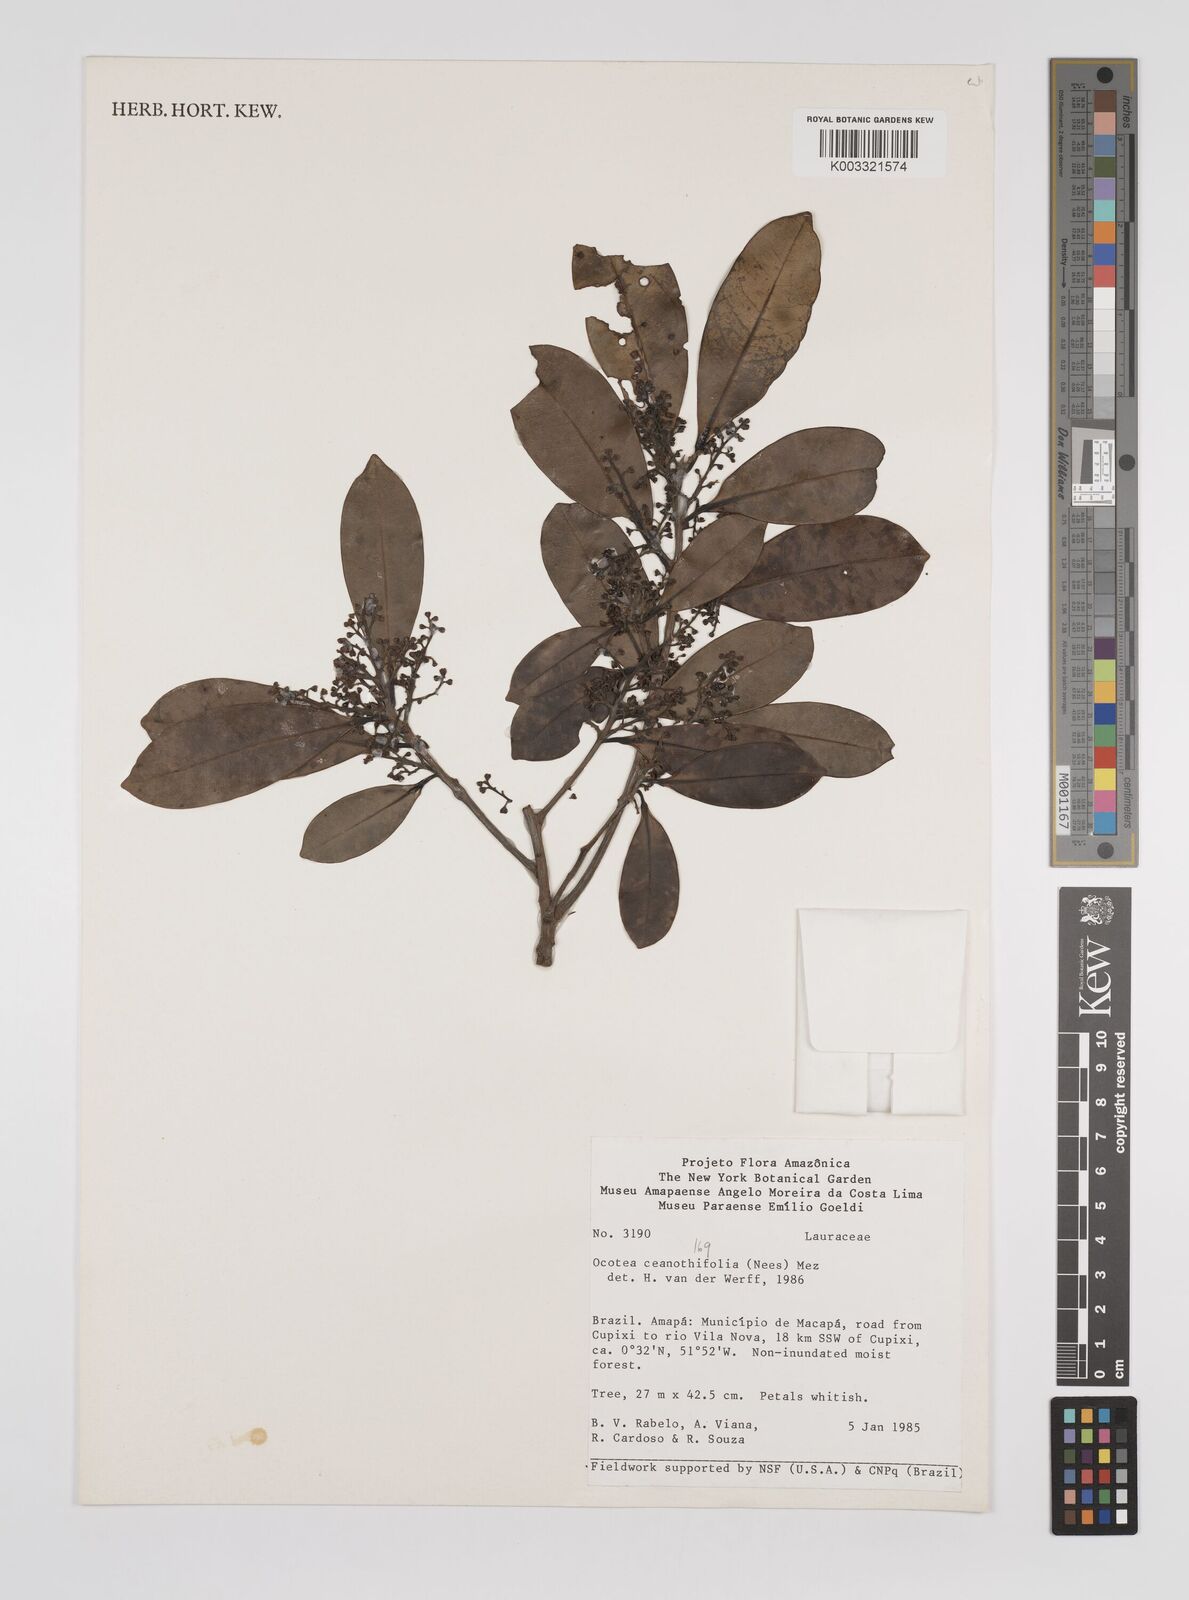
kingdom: Plantae
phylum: Tracheophyta
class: Magnoliopsida
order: Laurales
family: Lauraceae
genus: Mespilodaphne
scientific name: Mespilodaphne ceanothifolia
